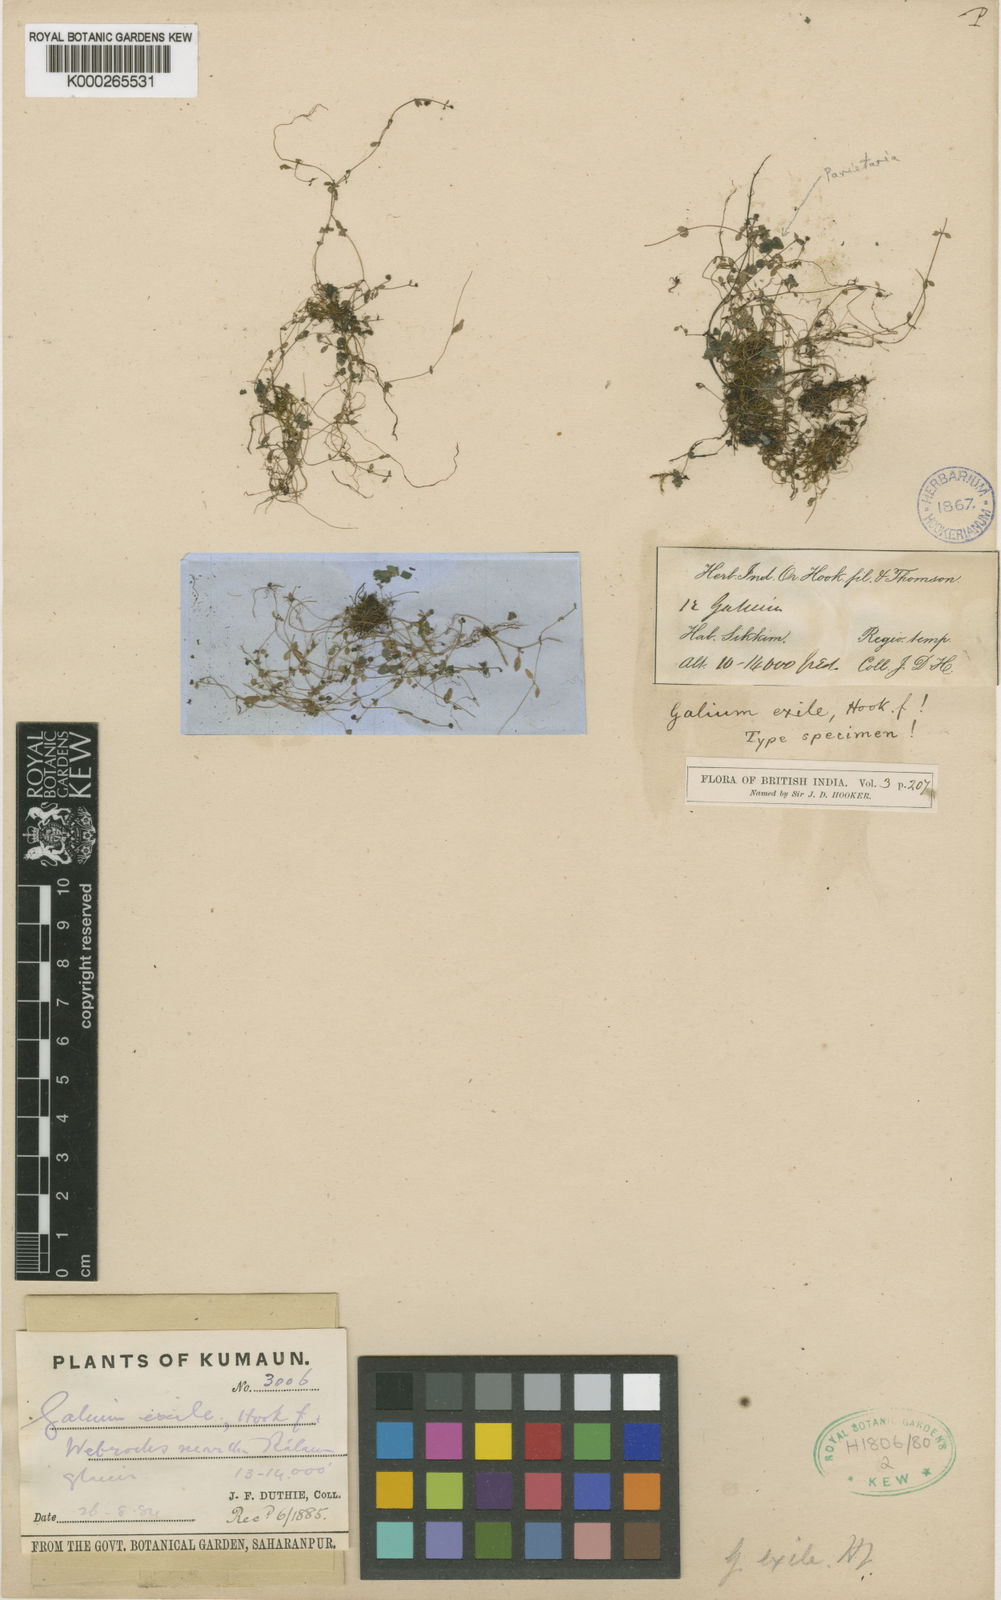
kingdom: Plantae
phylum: Tracheophyta
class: Magnoliopsida
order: Gentianales
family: Rubiaceae
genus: Galium
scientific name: Galium exile
